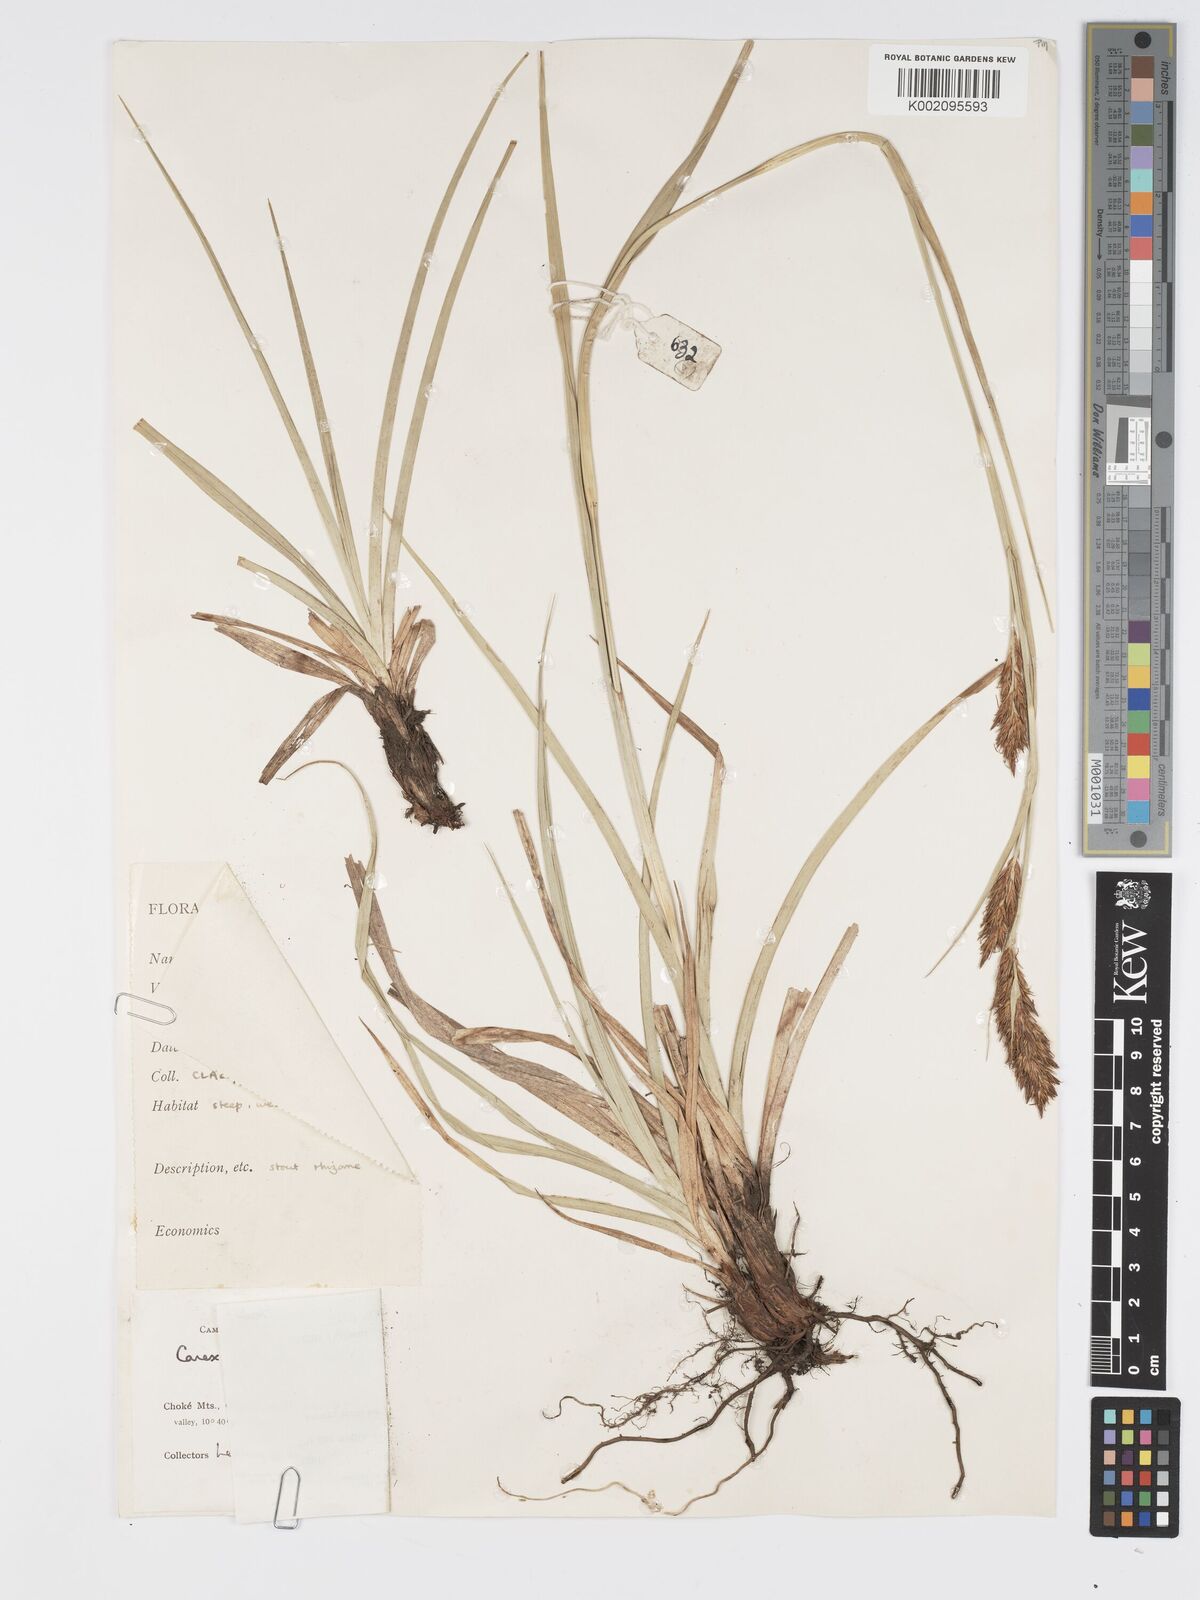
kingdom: Plantae
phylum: Tracheophyta
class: Liliopsida
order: Poales
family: Cyperaceae
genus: Carex
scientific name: Carex steudneri
